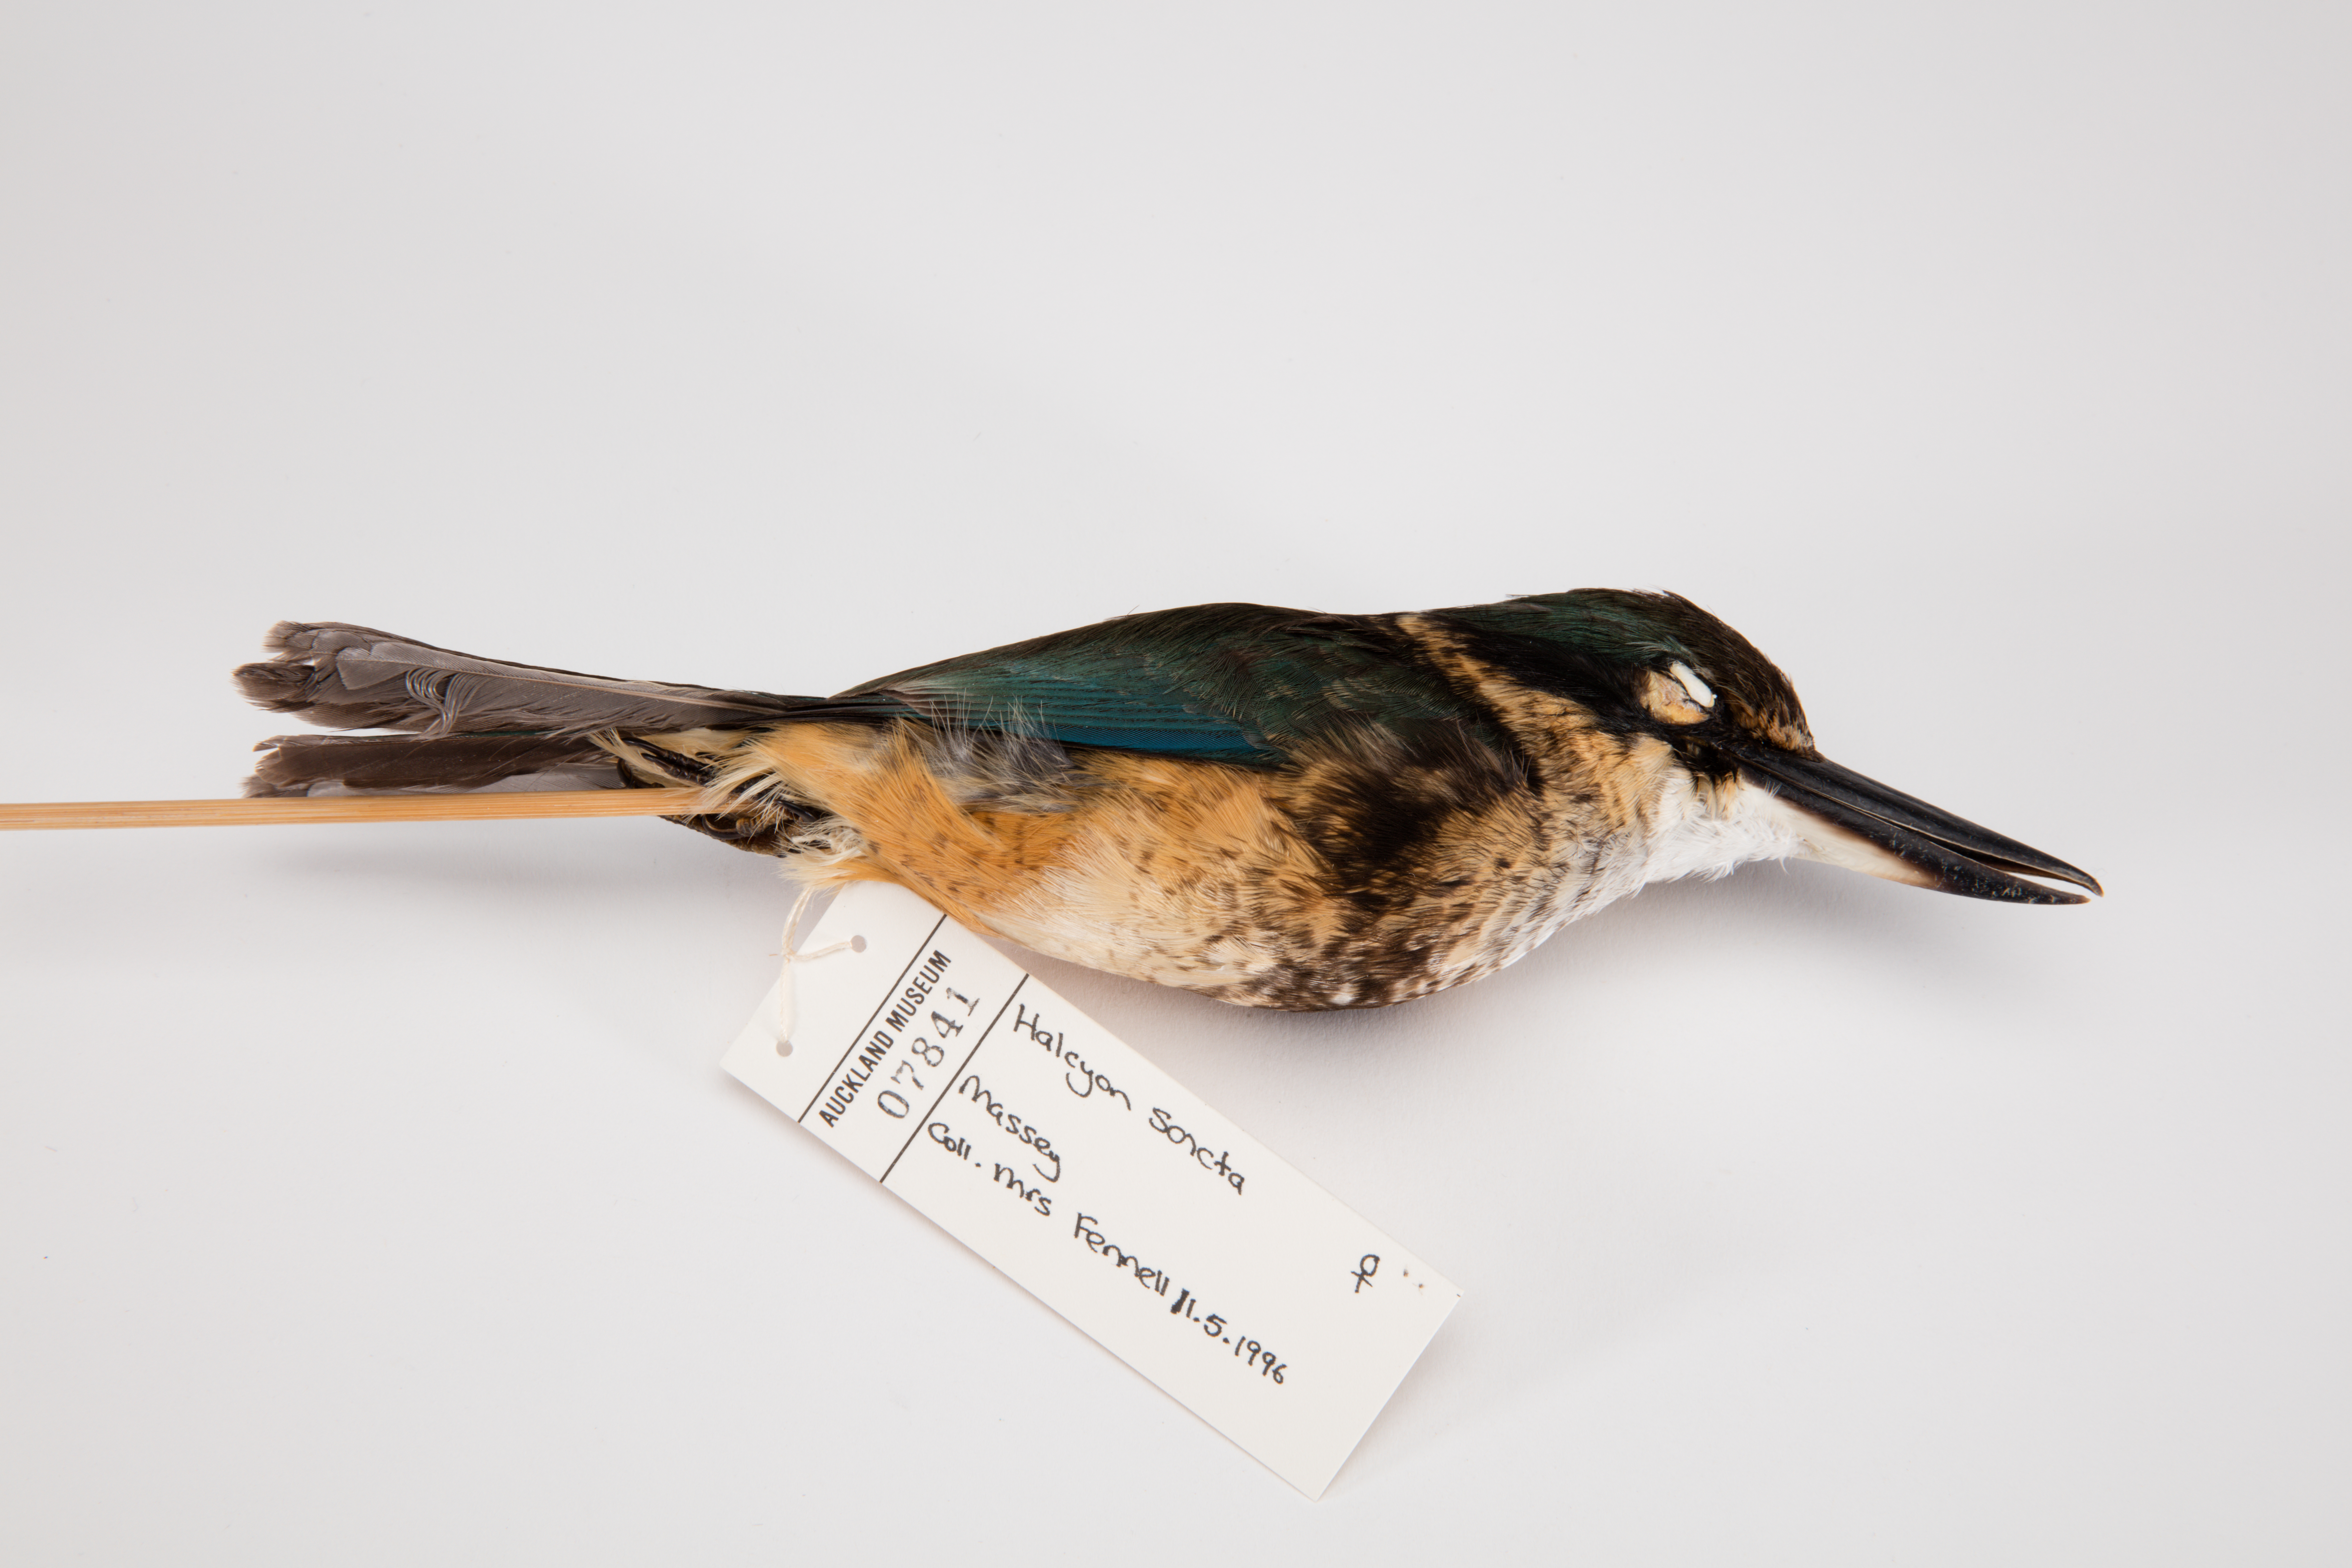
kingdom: Animalia
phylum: Chordata
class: Aves
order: Coraciiformes
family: Alcedinidae
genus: Todiramphus
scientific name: Todiramphus sanctus
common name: Sacred kingfisher
